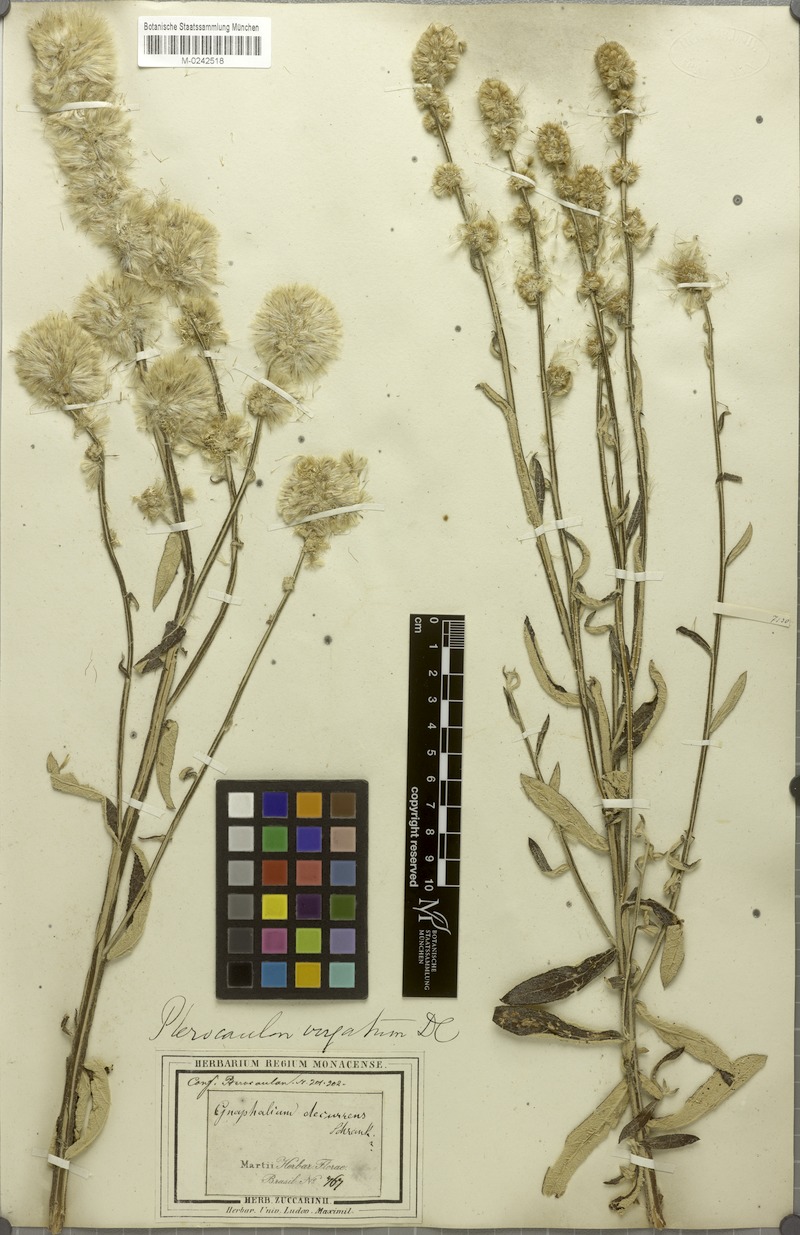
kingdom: Plantae
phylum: Tracheophyta
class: Magnoliopsida
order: Asterales
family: Asteraceae
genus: Pterocaulon
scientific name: Pterocaulon virgatum
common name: Wand blackroot
